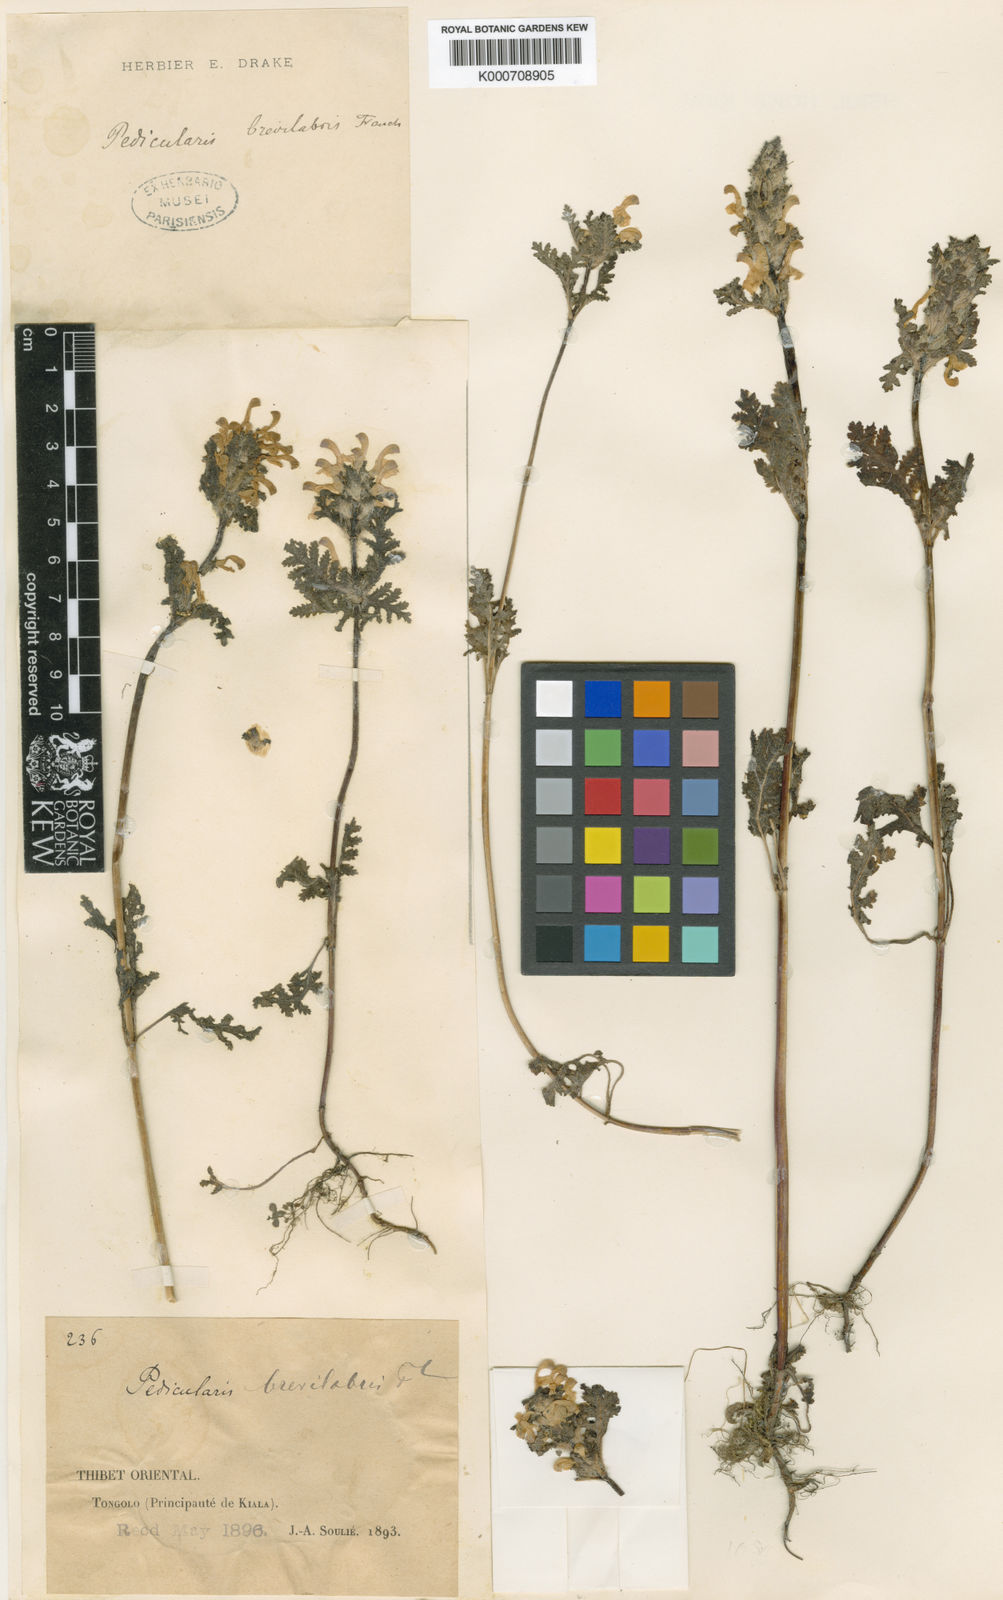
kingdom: Plantae
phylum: Tracheophyta
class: Magnoliopsida
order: Lamiales
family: Orobanchaceae
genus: Pedicularis
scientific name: Pedicularis brevilabris
